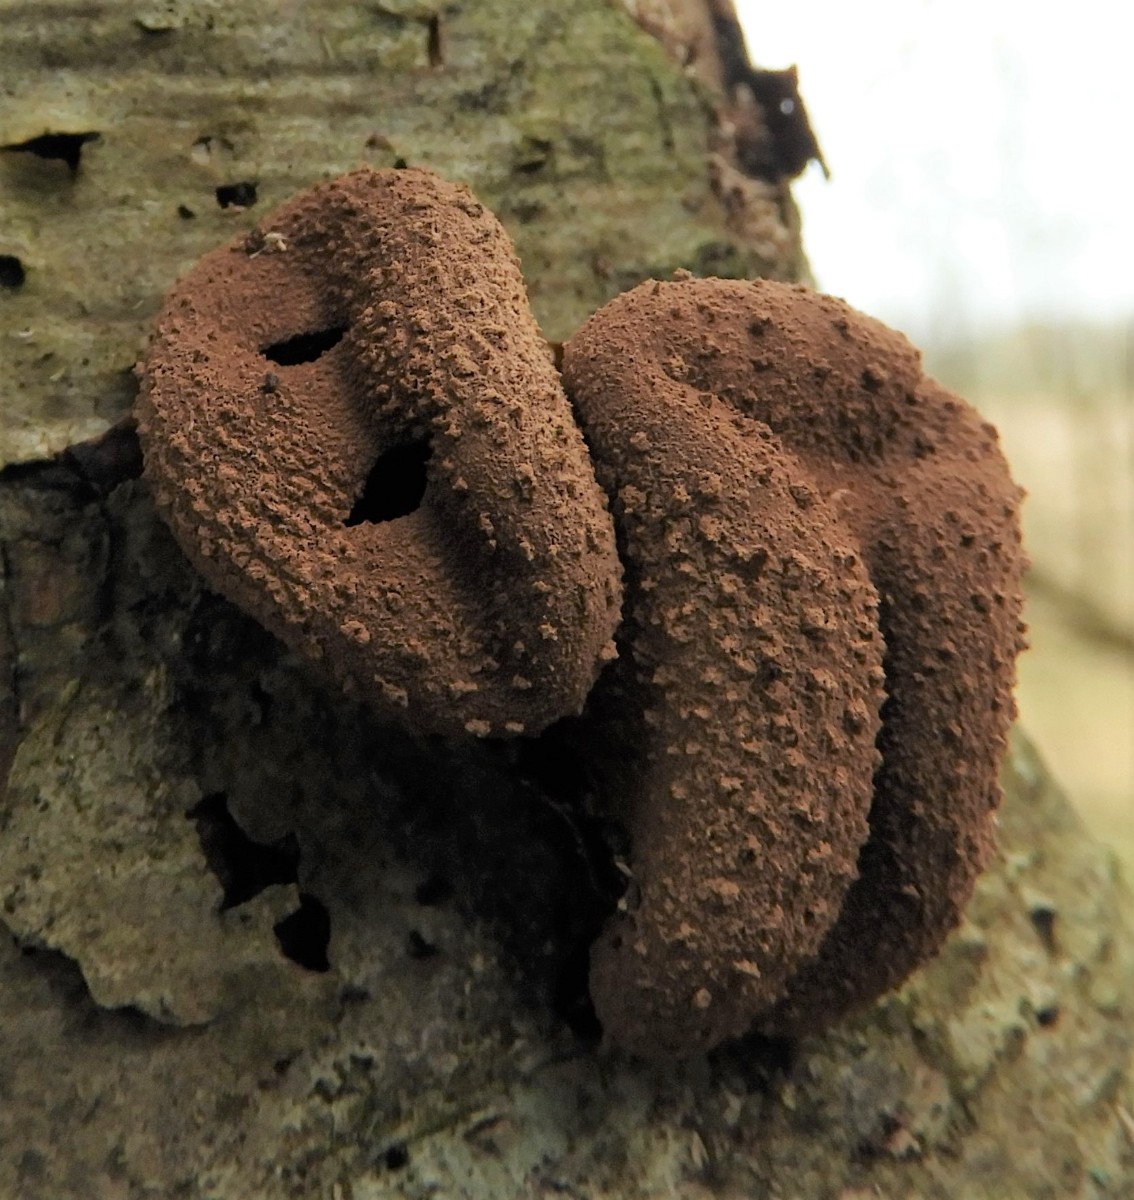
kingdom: Fungi
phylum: Ascomycota
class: Leotiomycetes
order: Helotiales
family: Cenangiaceae
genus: Encoelia
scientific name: Encoelia furfuracea
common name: hassel-læderskive
